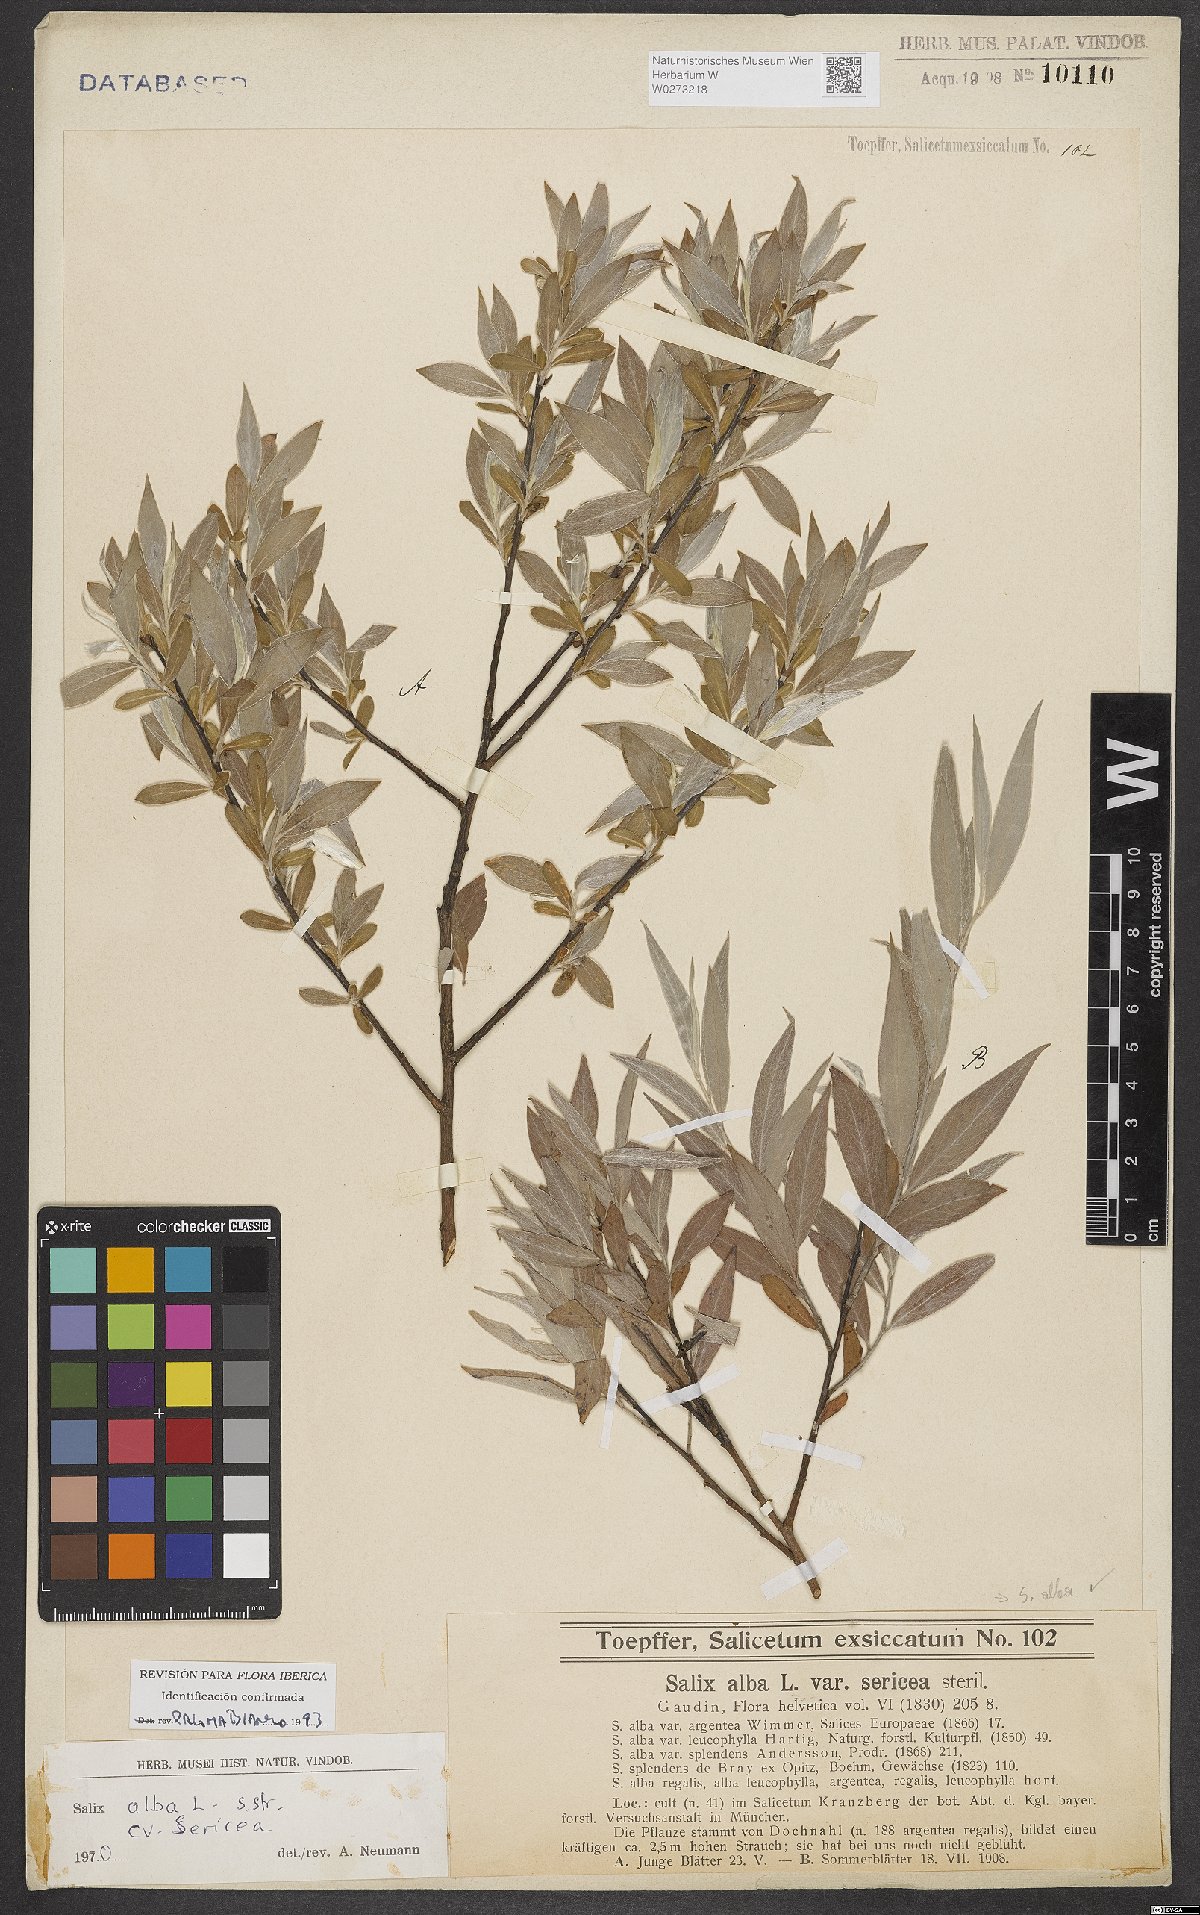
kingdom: Plantae
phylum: Tracheophyta
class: Magnoliopsida
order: Malpighiales
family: Salicaceae
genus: Salix
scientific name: Salix alba
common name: White willow
